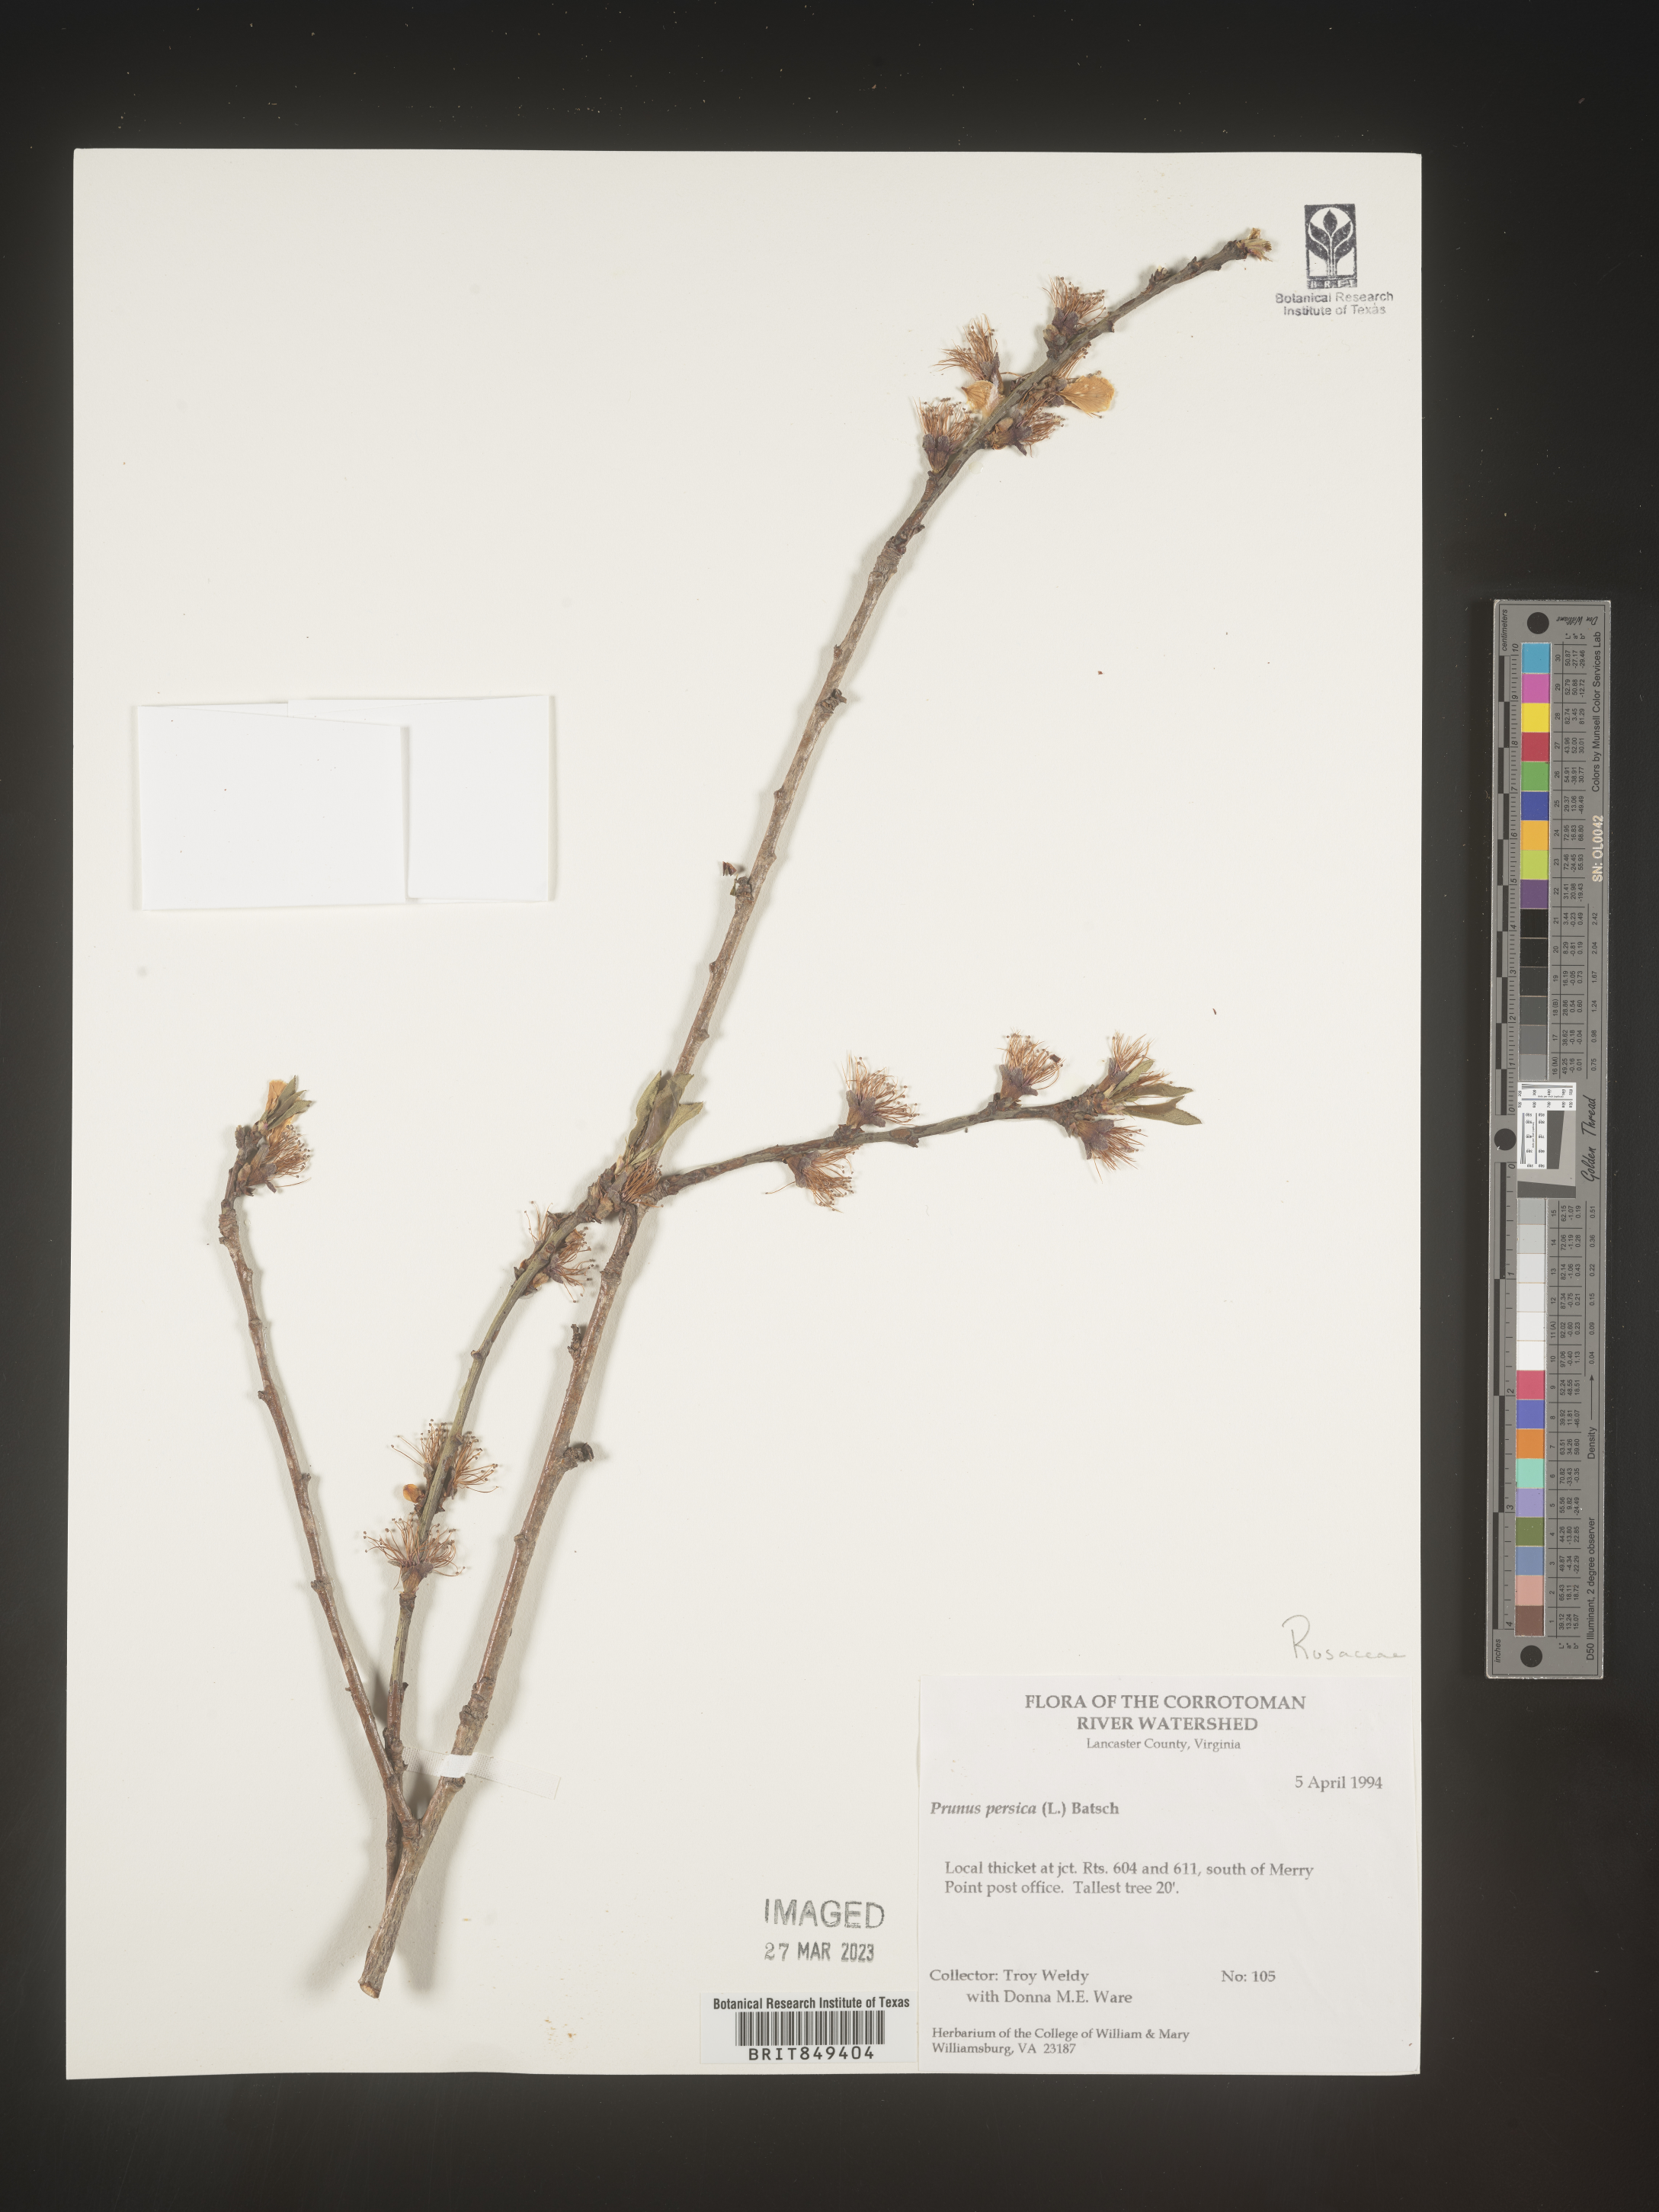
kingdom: Plantae
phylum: Tracheophyta
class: Magnoliopsida
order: Rosales
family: Rosaceae
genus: Prunus
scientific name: Prunus persica
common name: Peach
